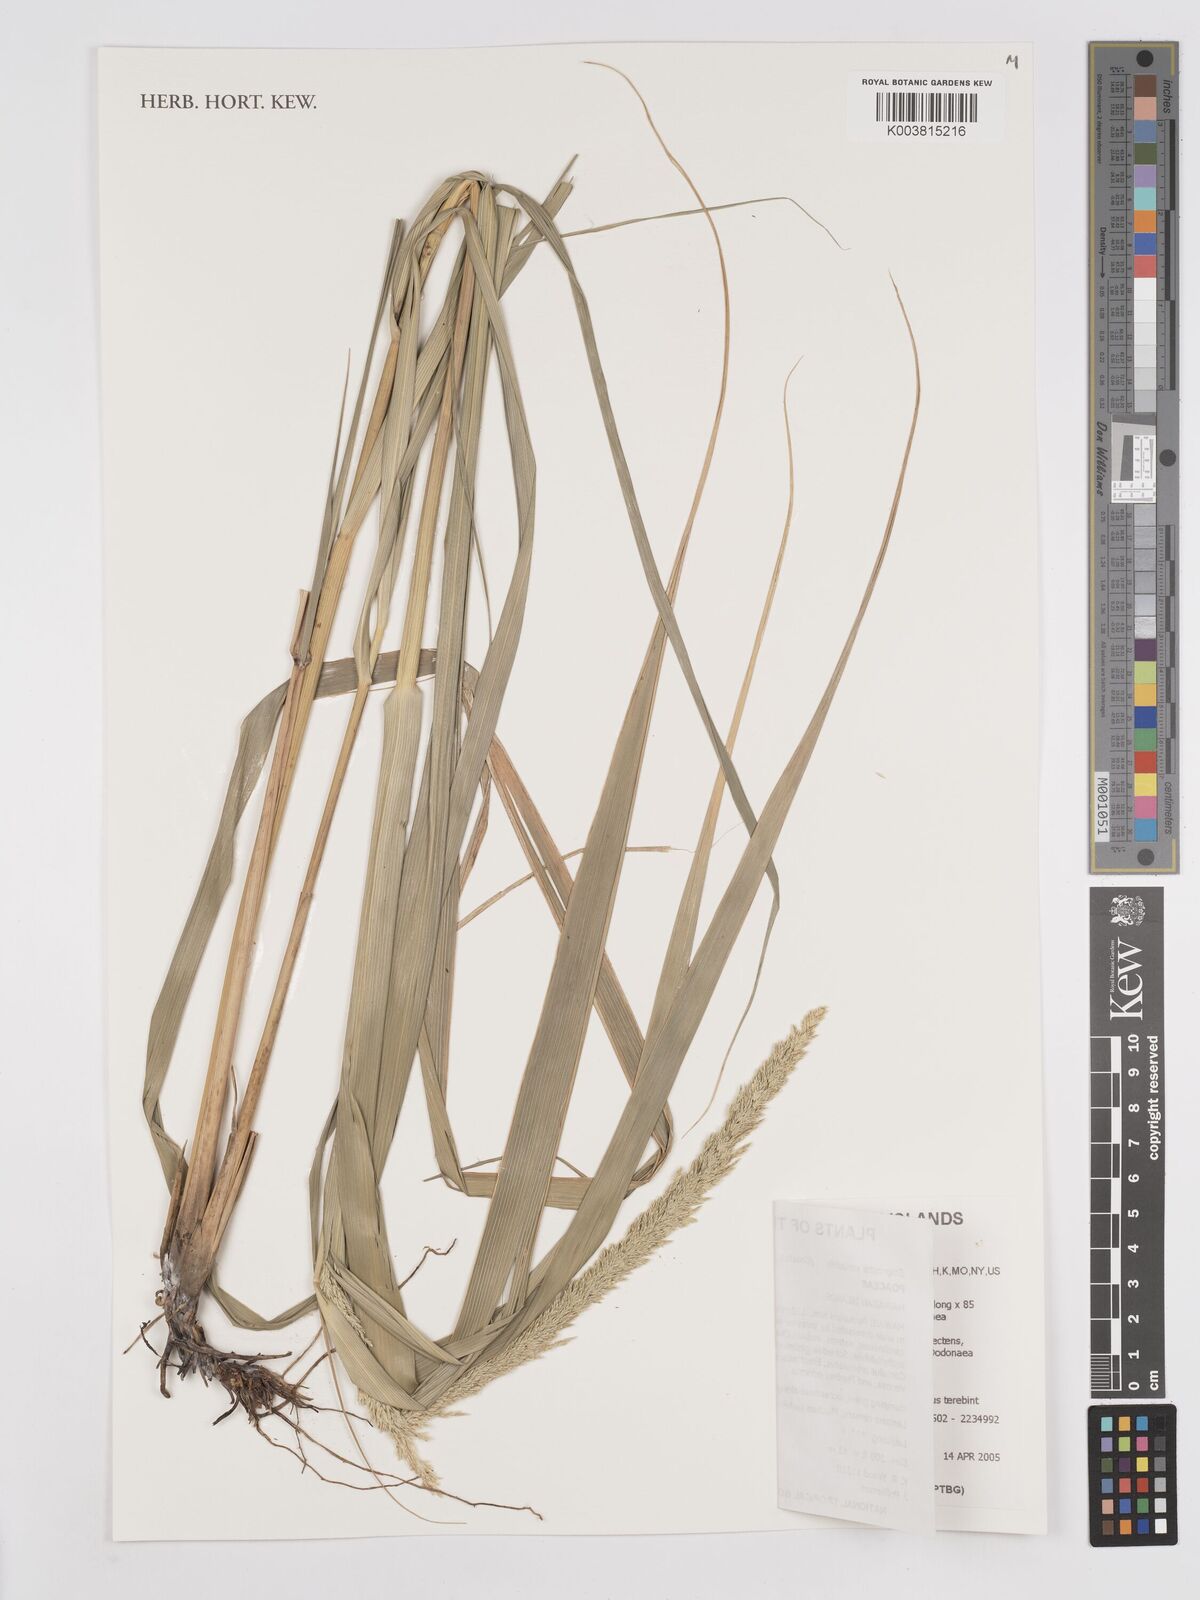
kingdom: Plantae
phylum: Tracheophyta
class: Liliopsida
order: Poales
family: Poaceae
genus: Eragrostis
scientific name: Eragrostis variabilis
